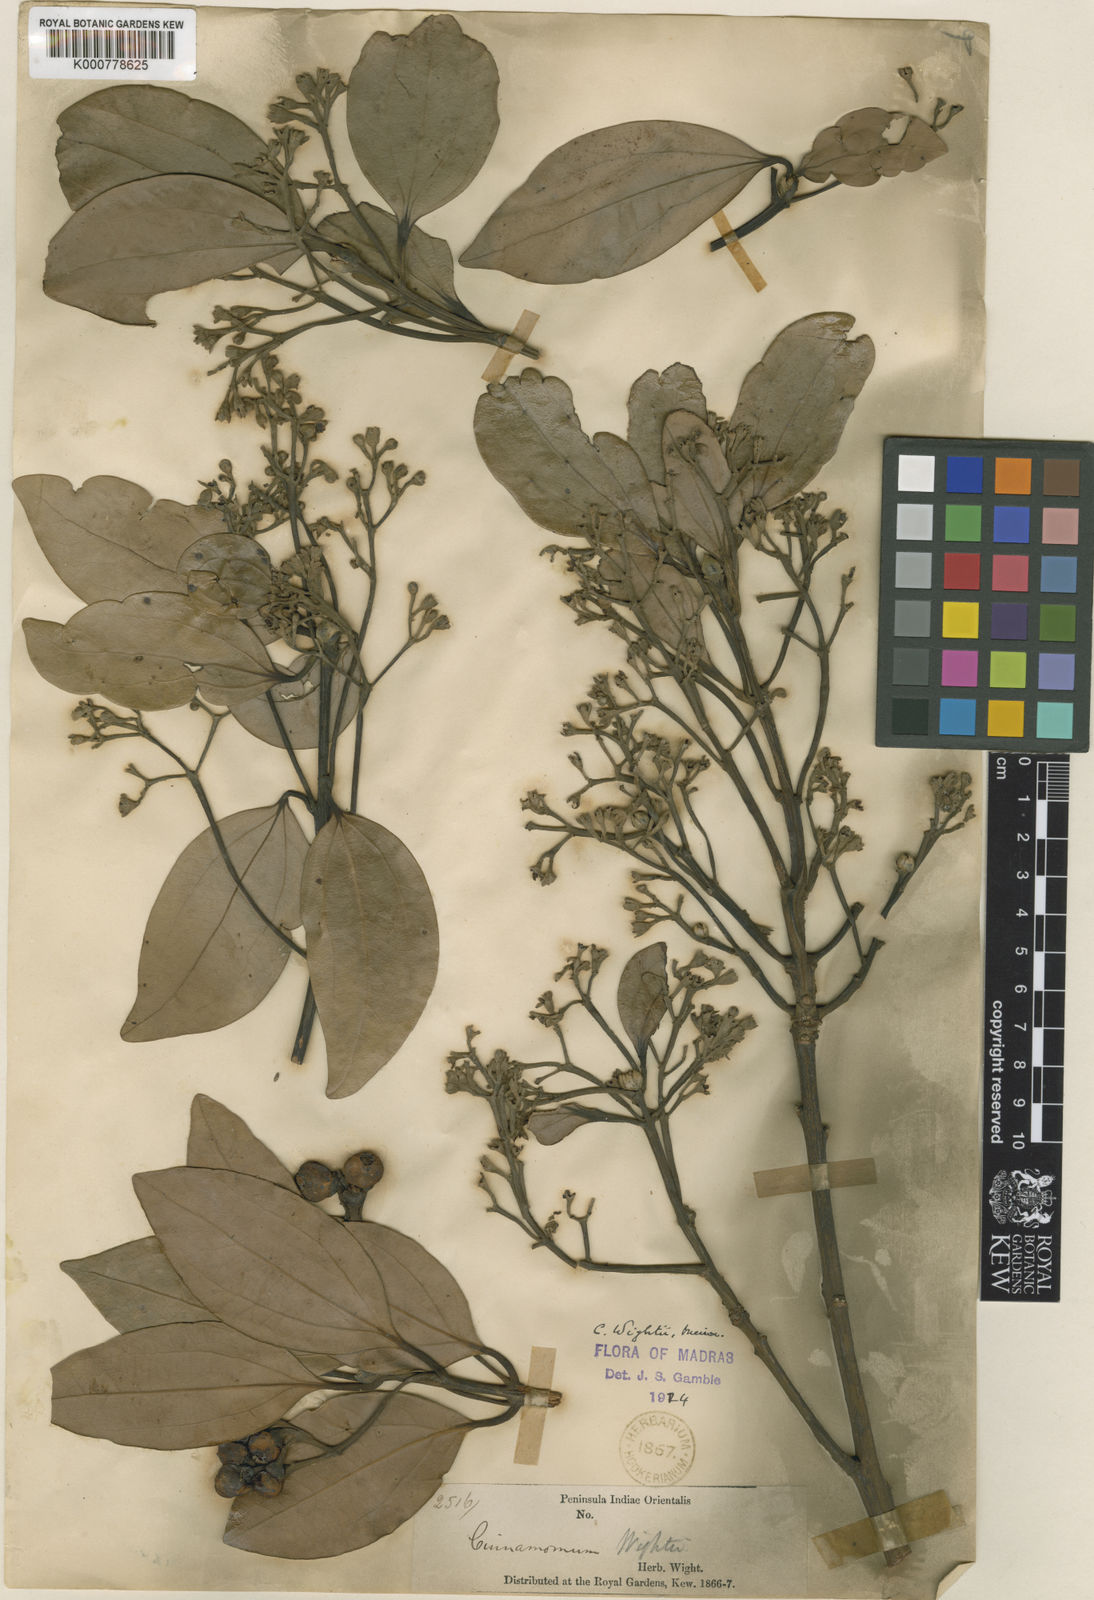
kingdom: Plantae
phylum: Tracheophyta
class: Magnoliopsida
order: Laurales
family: Lauraceae
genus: Cinnamomum
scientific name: Cinnamomum
